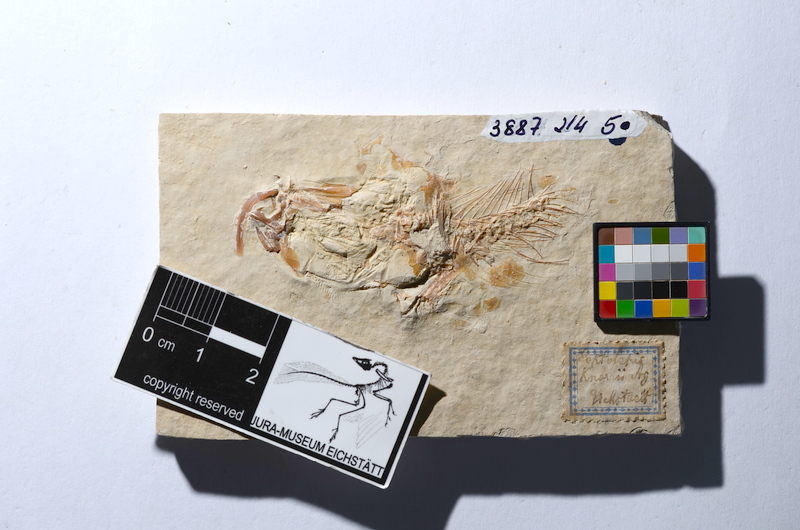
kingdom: Animalia
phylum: Chordata
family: Ascalaboidae
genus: Tharsis
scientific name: Tharsis dubius
